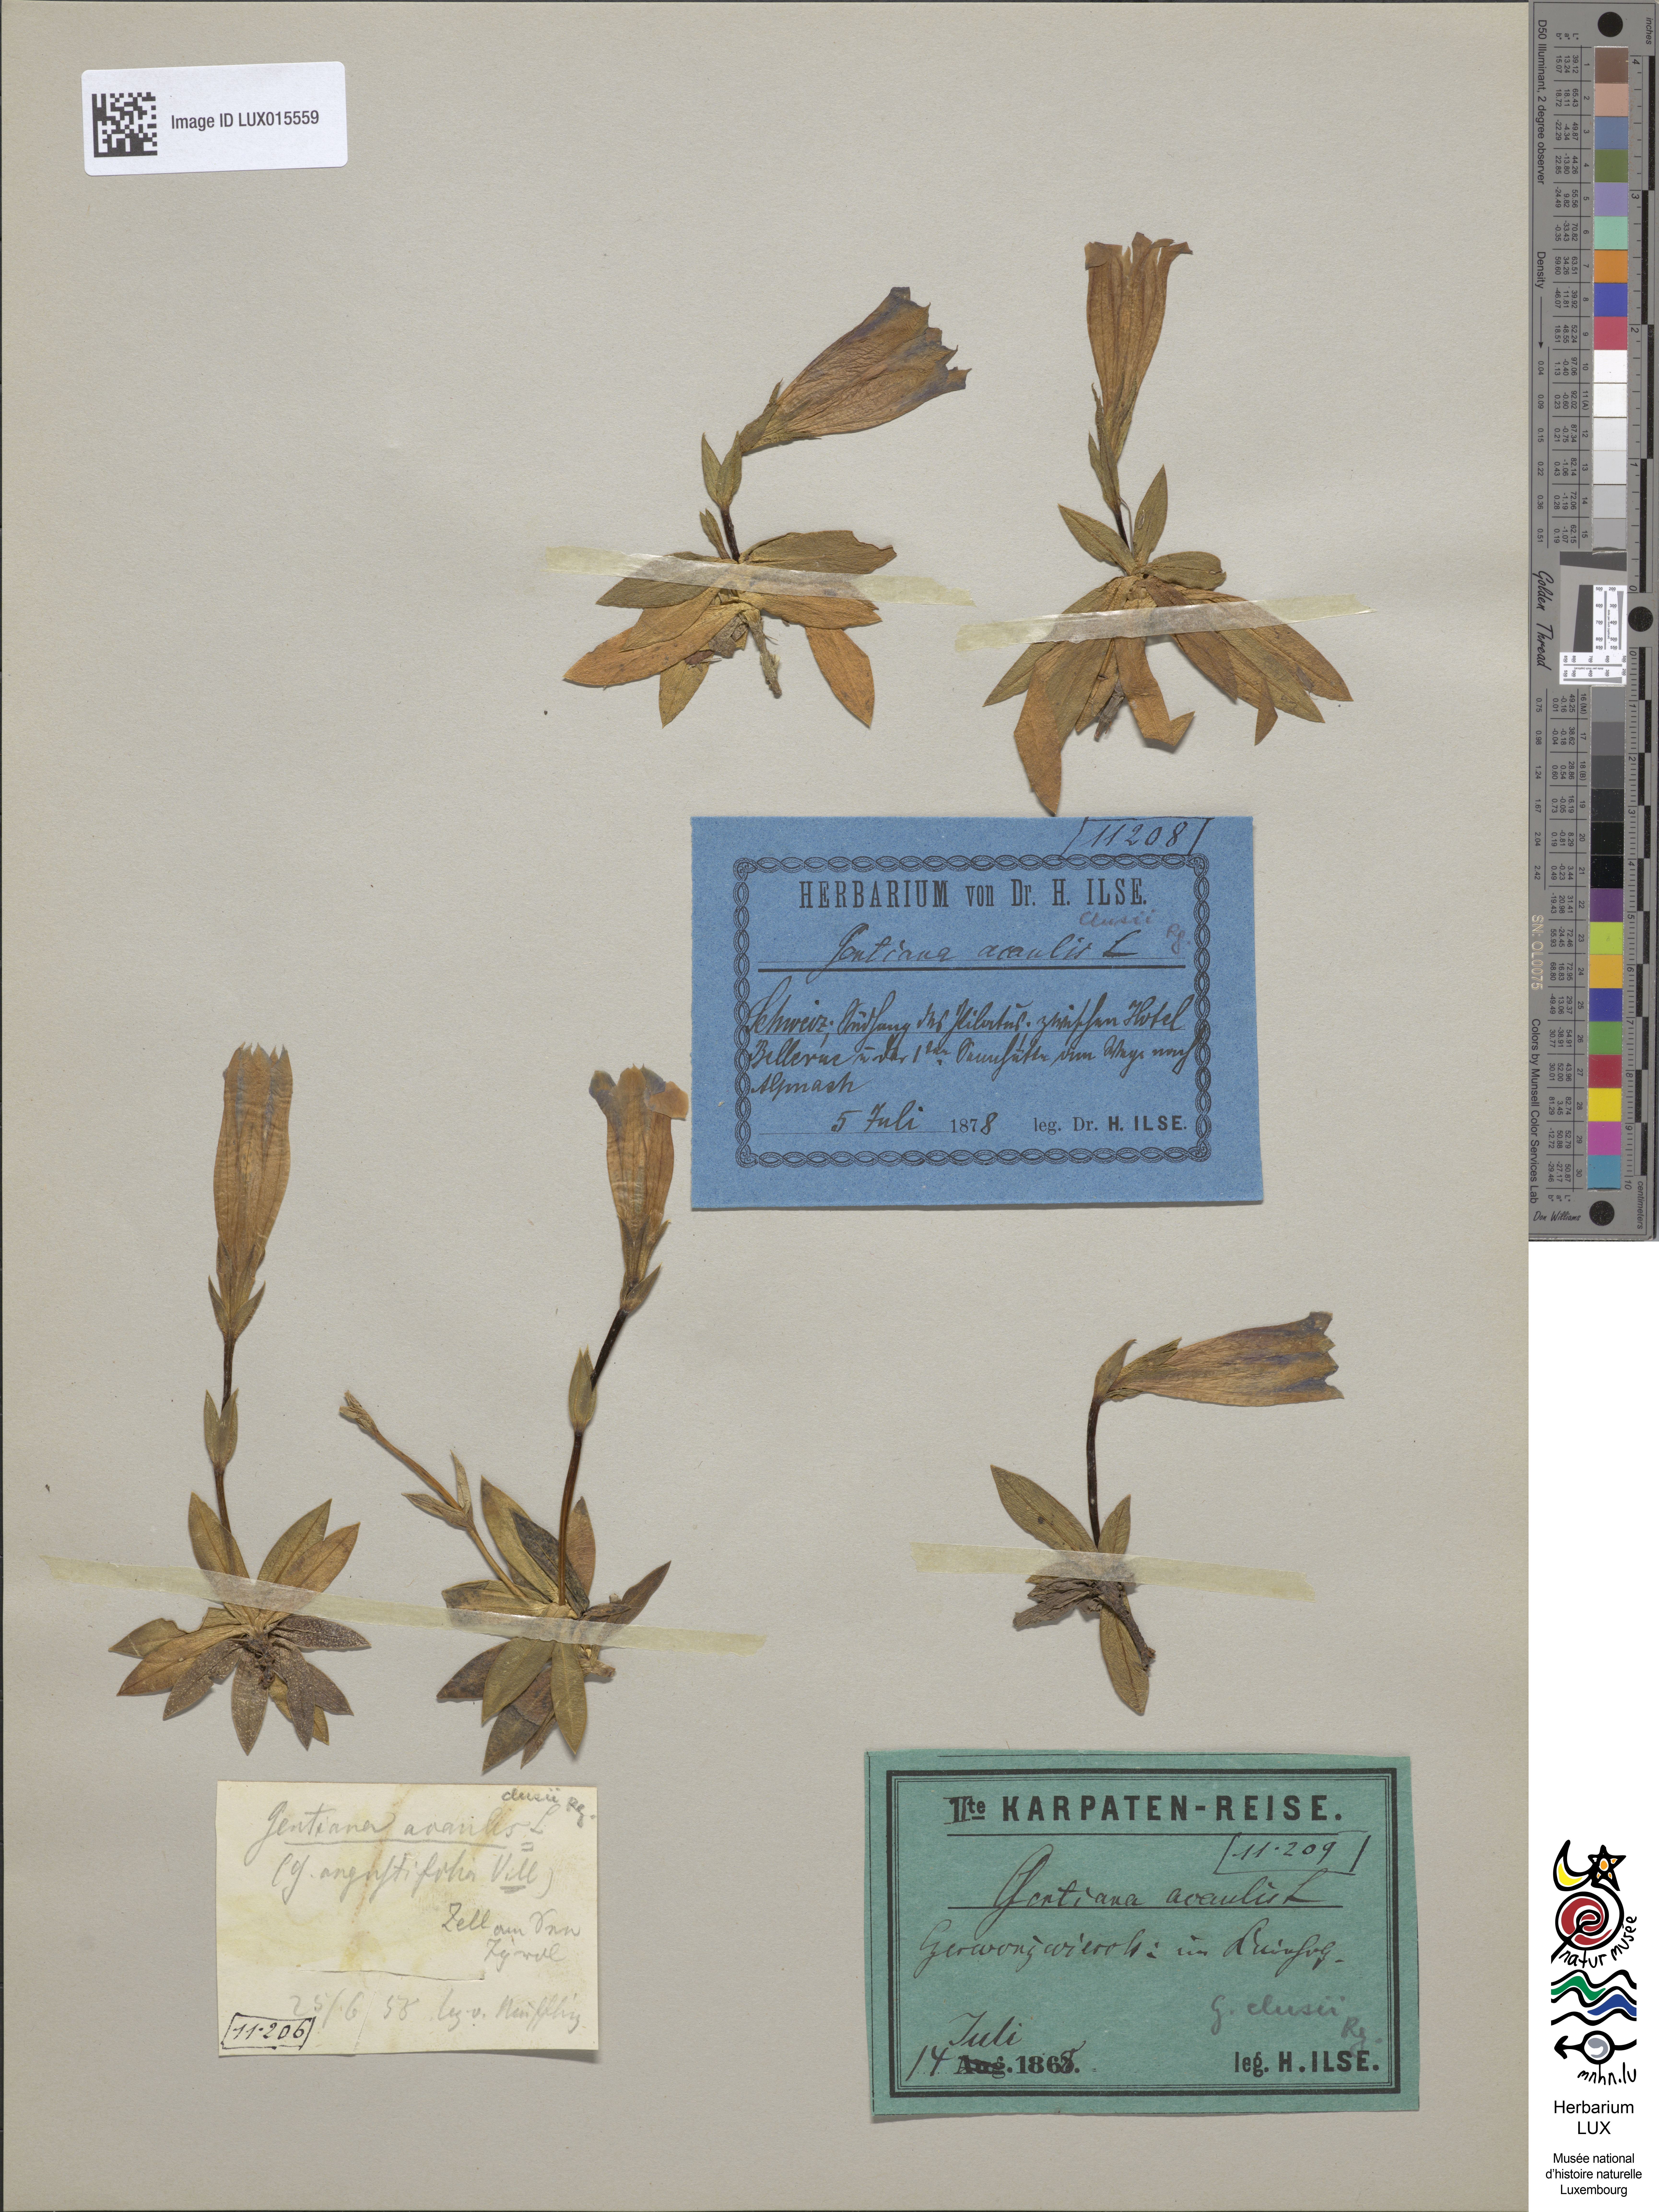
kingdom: Plantae
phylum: Tracheophyta
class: Magnoliopsida
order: Gentianales
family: Gentianaceae
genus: Gentiana
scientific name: Gentiana clusii
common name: Trumpet gentian
